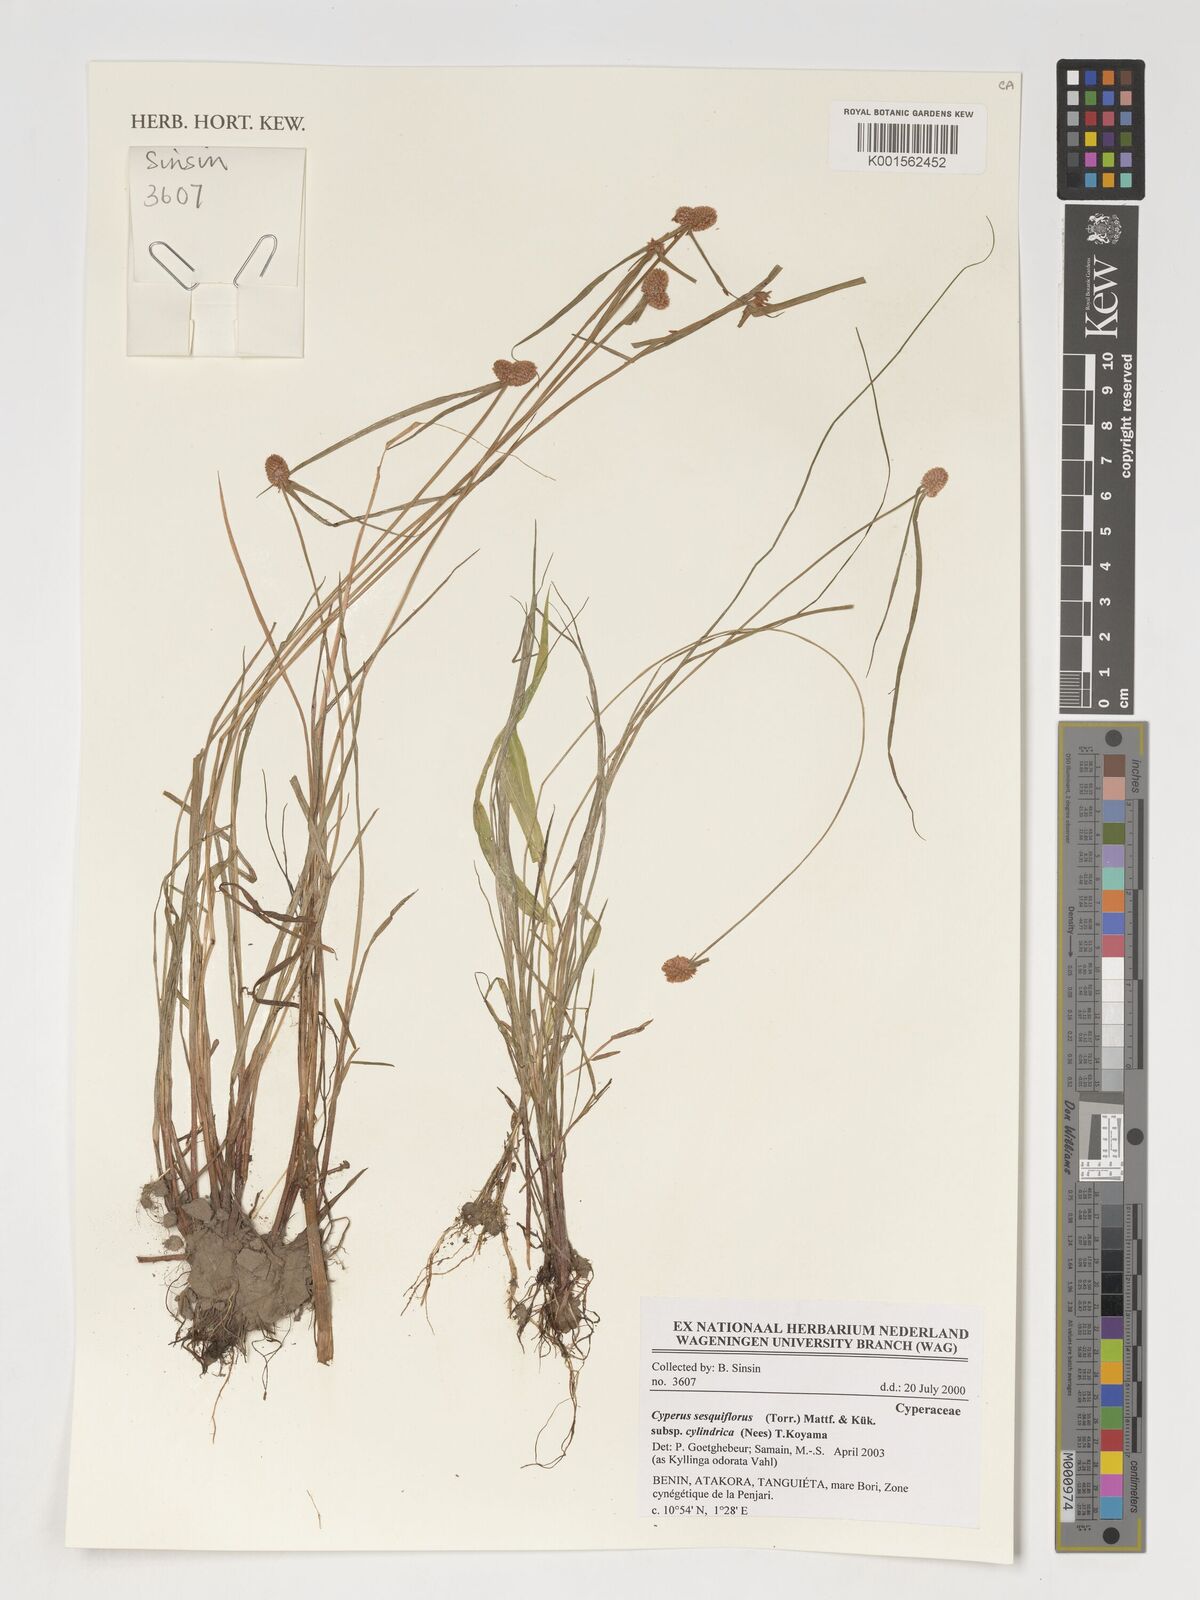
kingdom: Plantae
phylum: Tracheophyta
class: Liliopsida
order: Poales
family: Cyperaceae
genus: Cyperus
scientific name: Cyperus sesquiflorus
